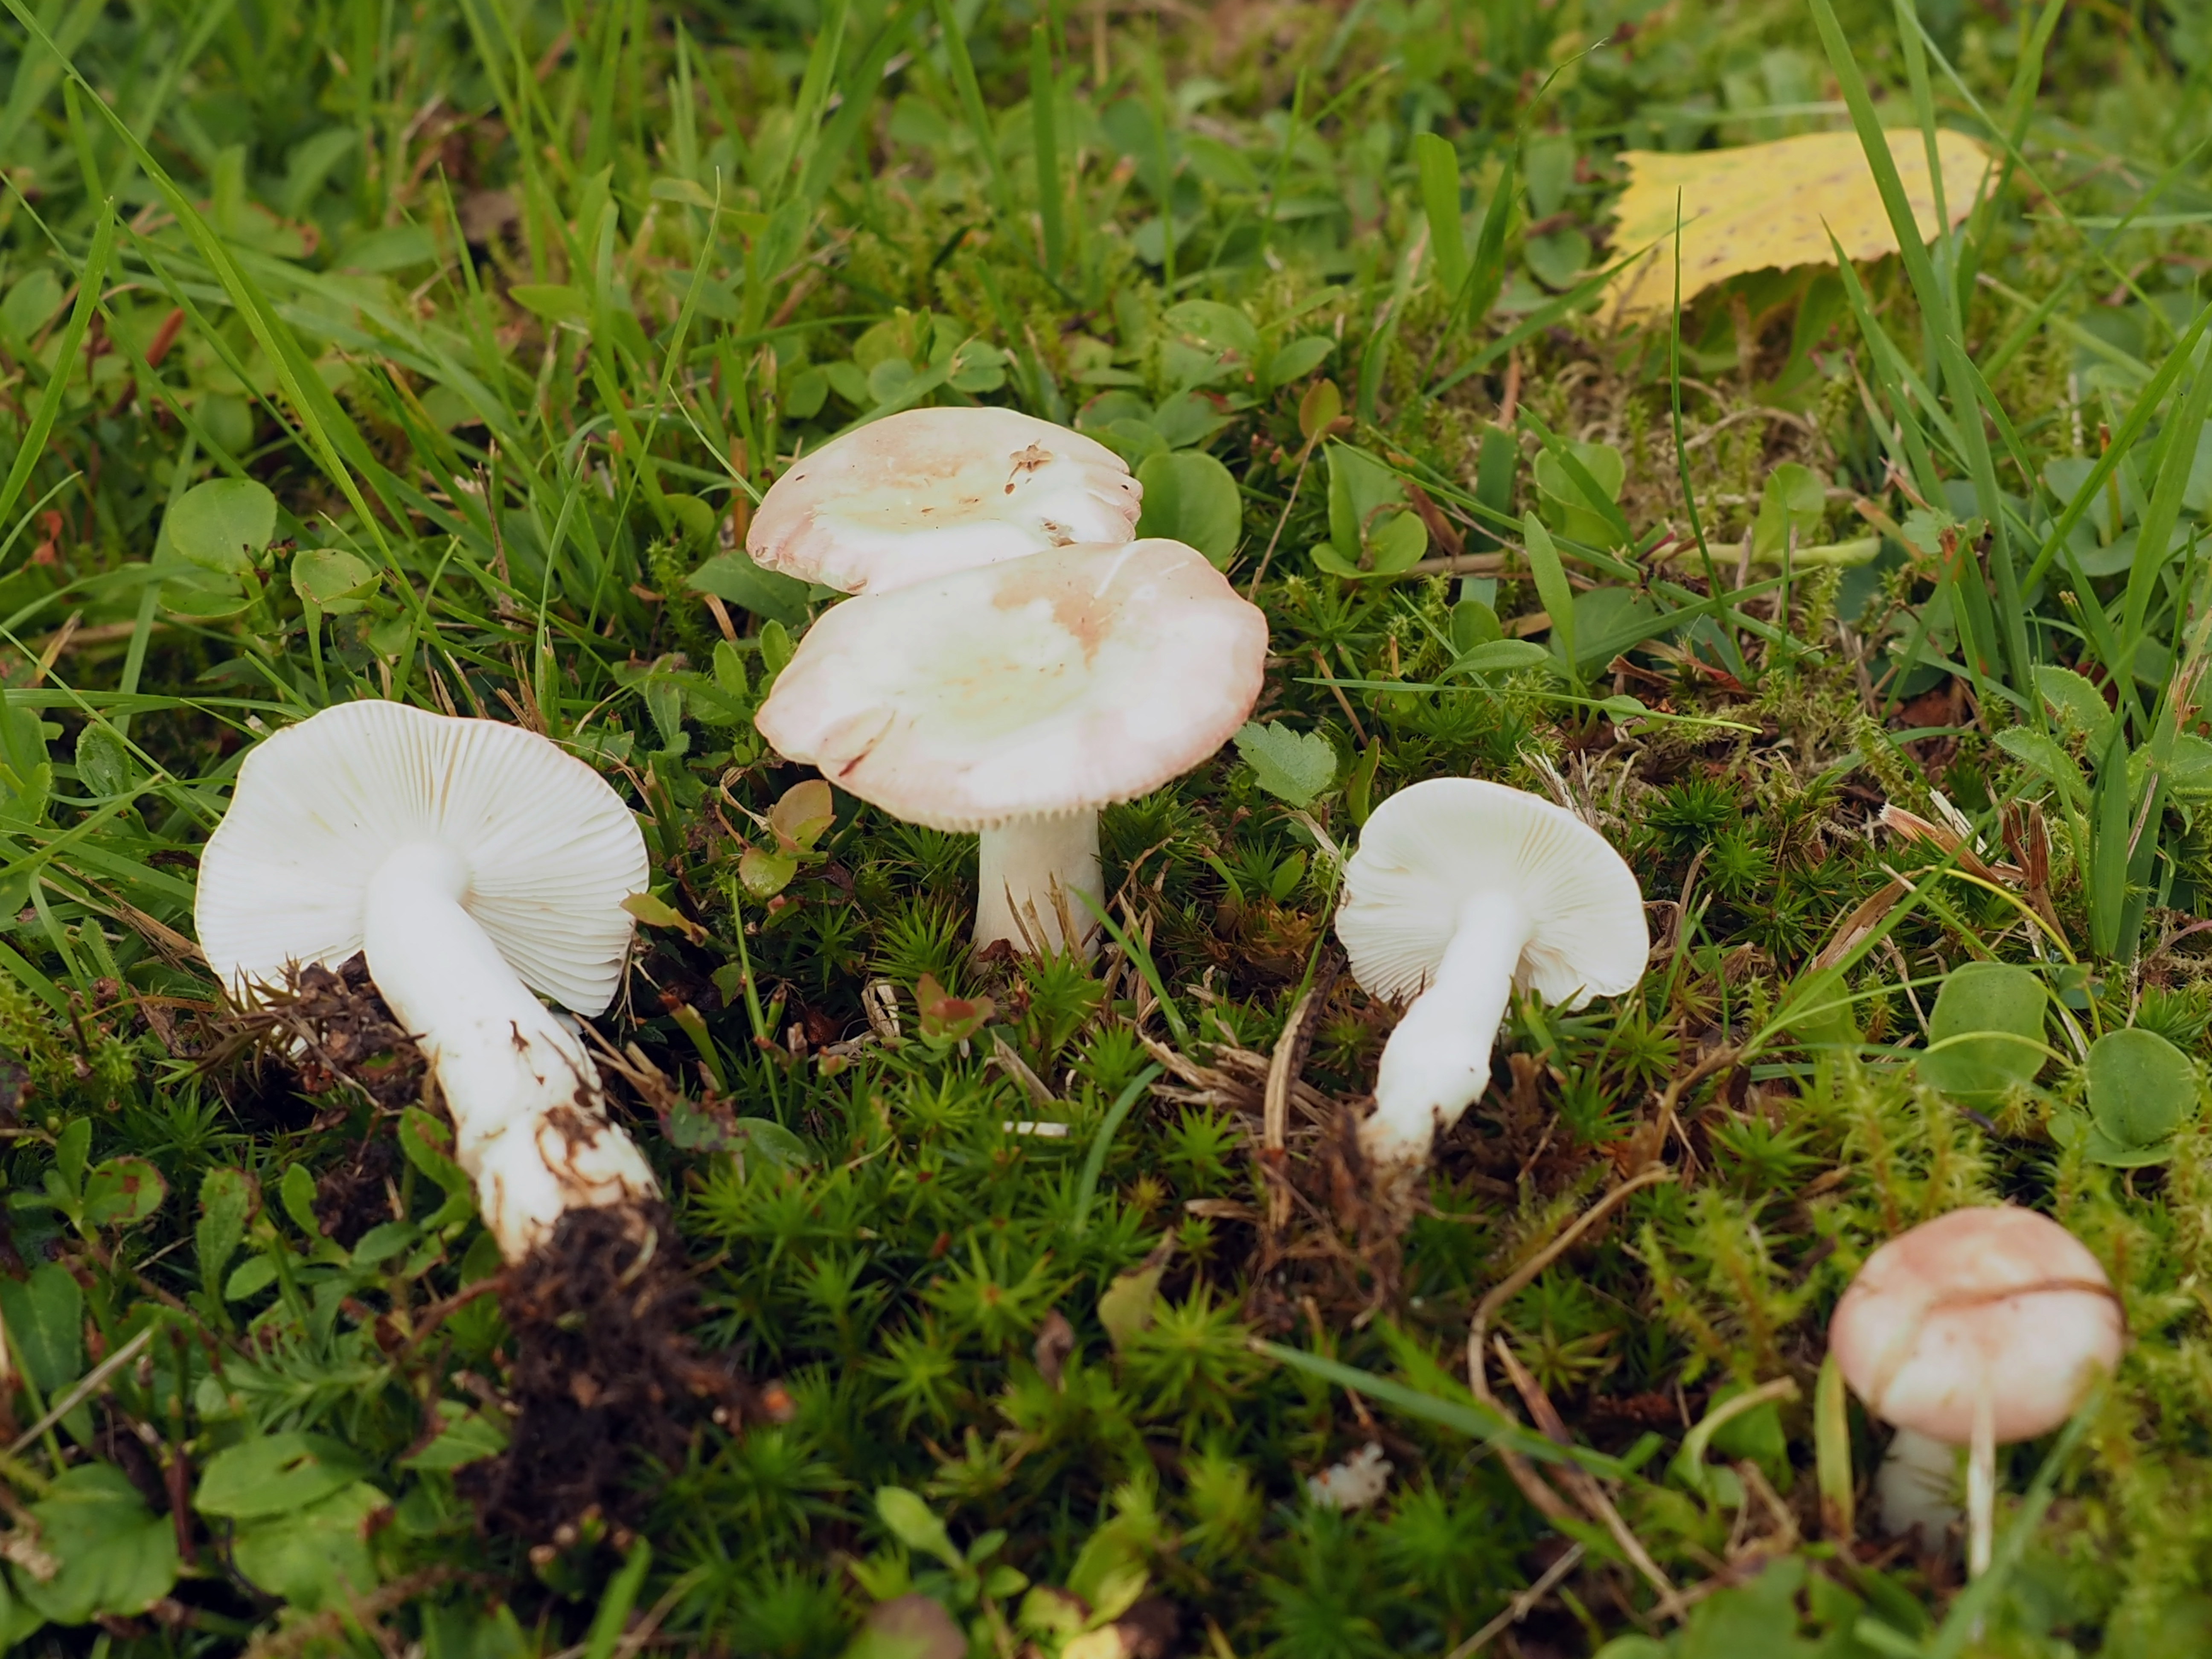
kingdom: Fungi
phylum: Basidiomycota
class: Agaricomycetes
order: Russulales
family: Russulaceae
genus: Russula
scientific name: Russula betularum
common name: Birch brittlegill
